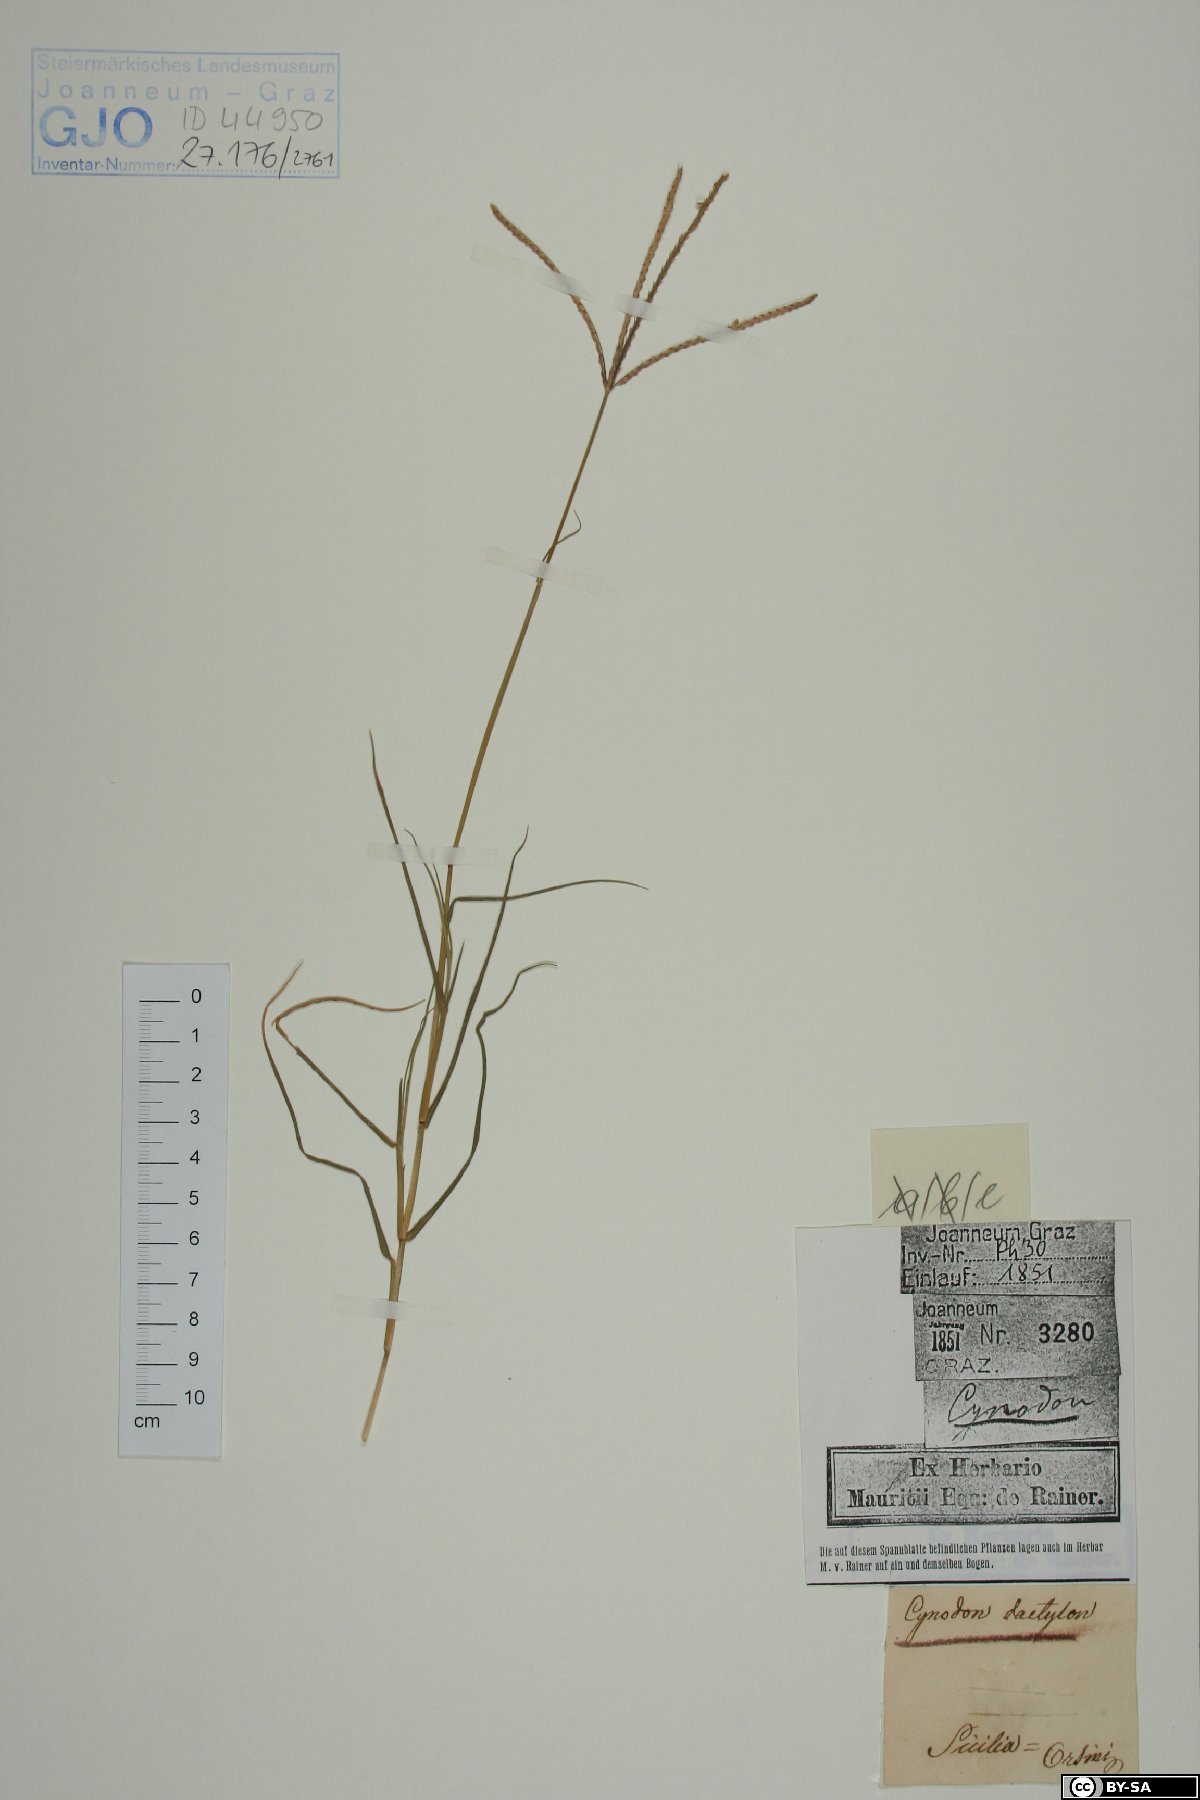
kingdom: Plantae
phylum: Tracheophyta
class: Liliopsida
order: Poales
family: Poaceae
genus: Cynodon
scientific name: Cynodon dactylon
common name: Bermuda grass
